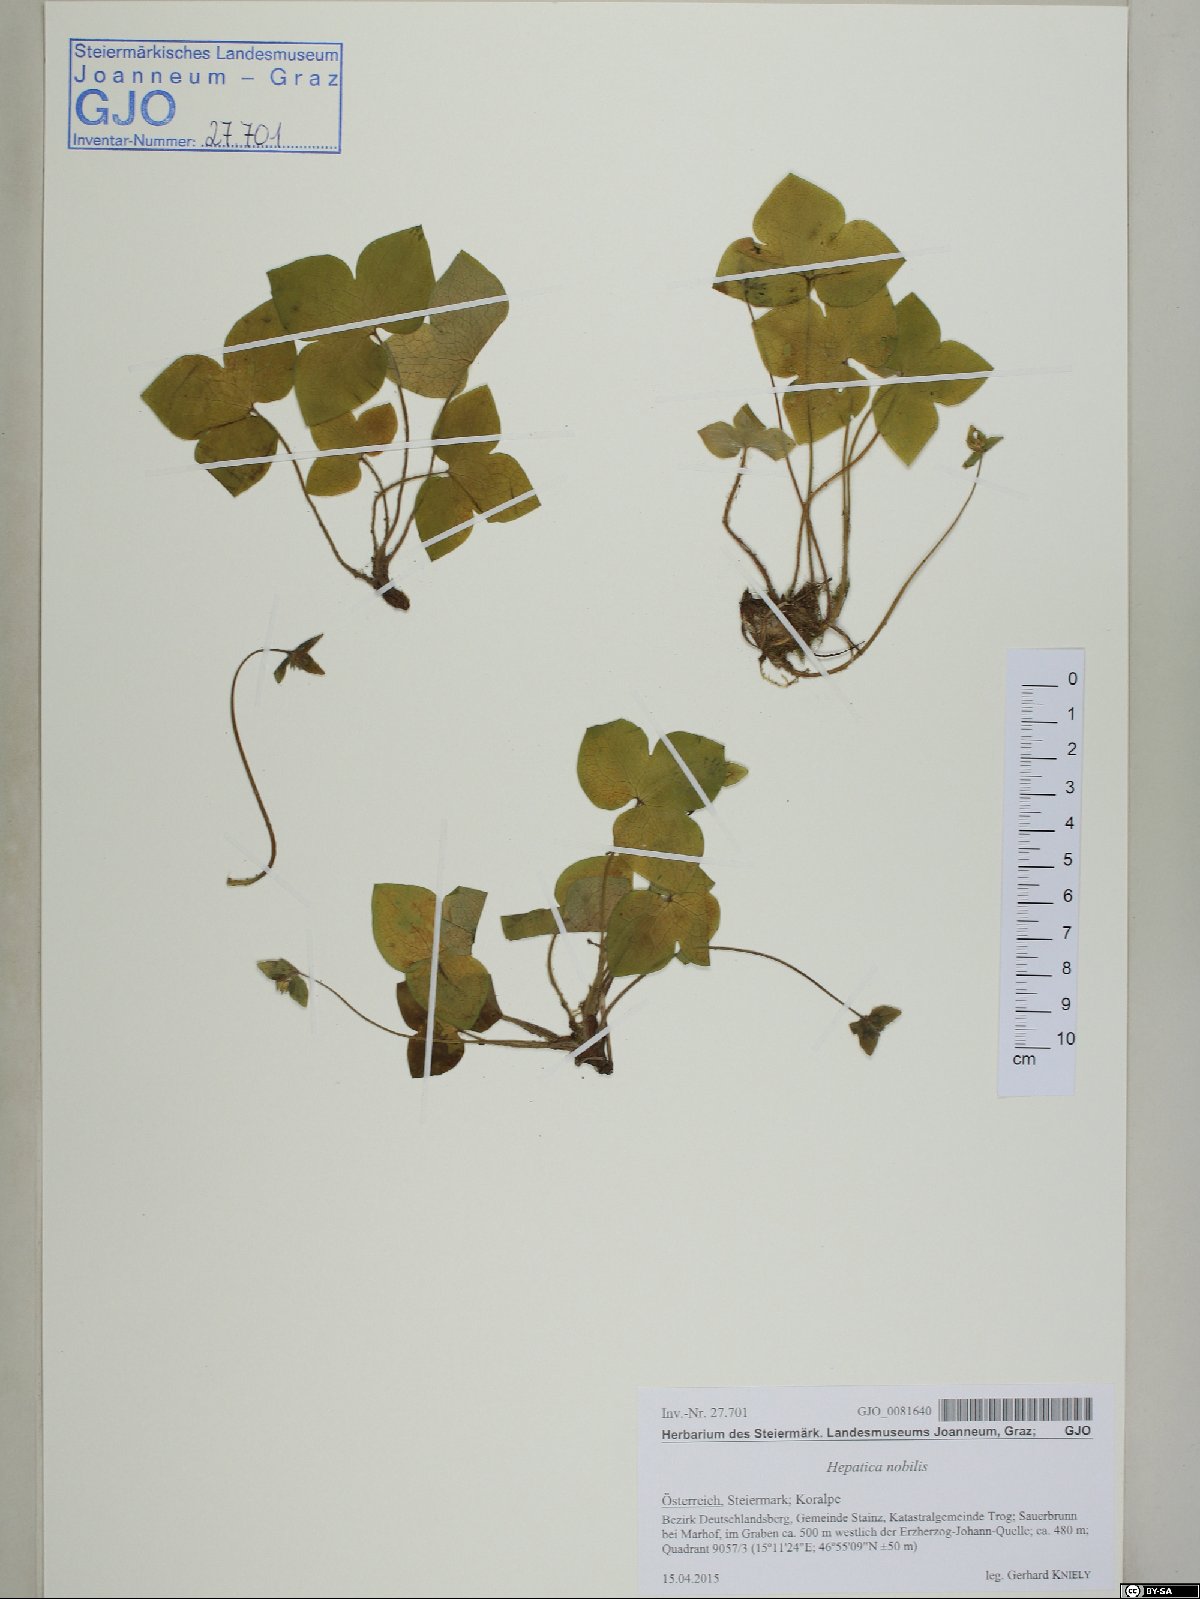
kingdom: Plantae
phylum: Tracheophyta
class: Magnoliopsida
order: Ranunculales
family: Ranunculaceae
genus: Hepatica
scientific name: Hepatica nobilis
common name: Liverleaf
